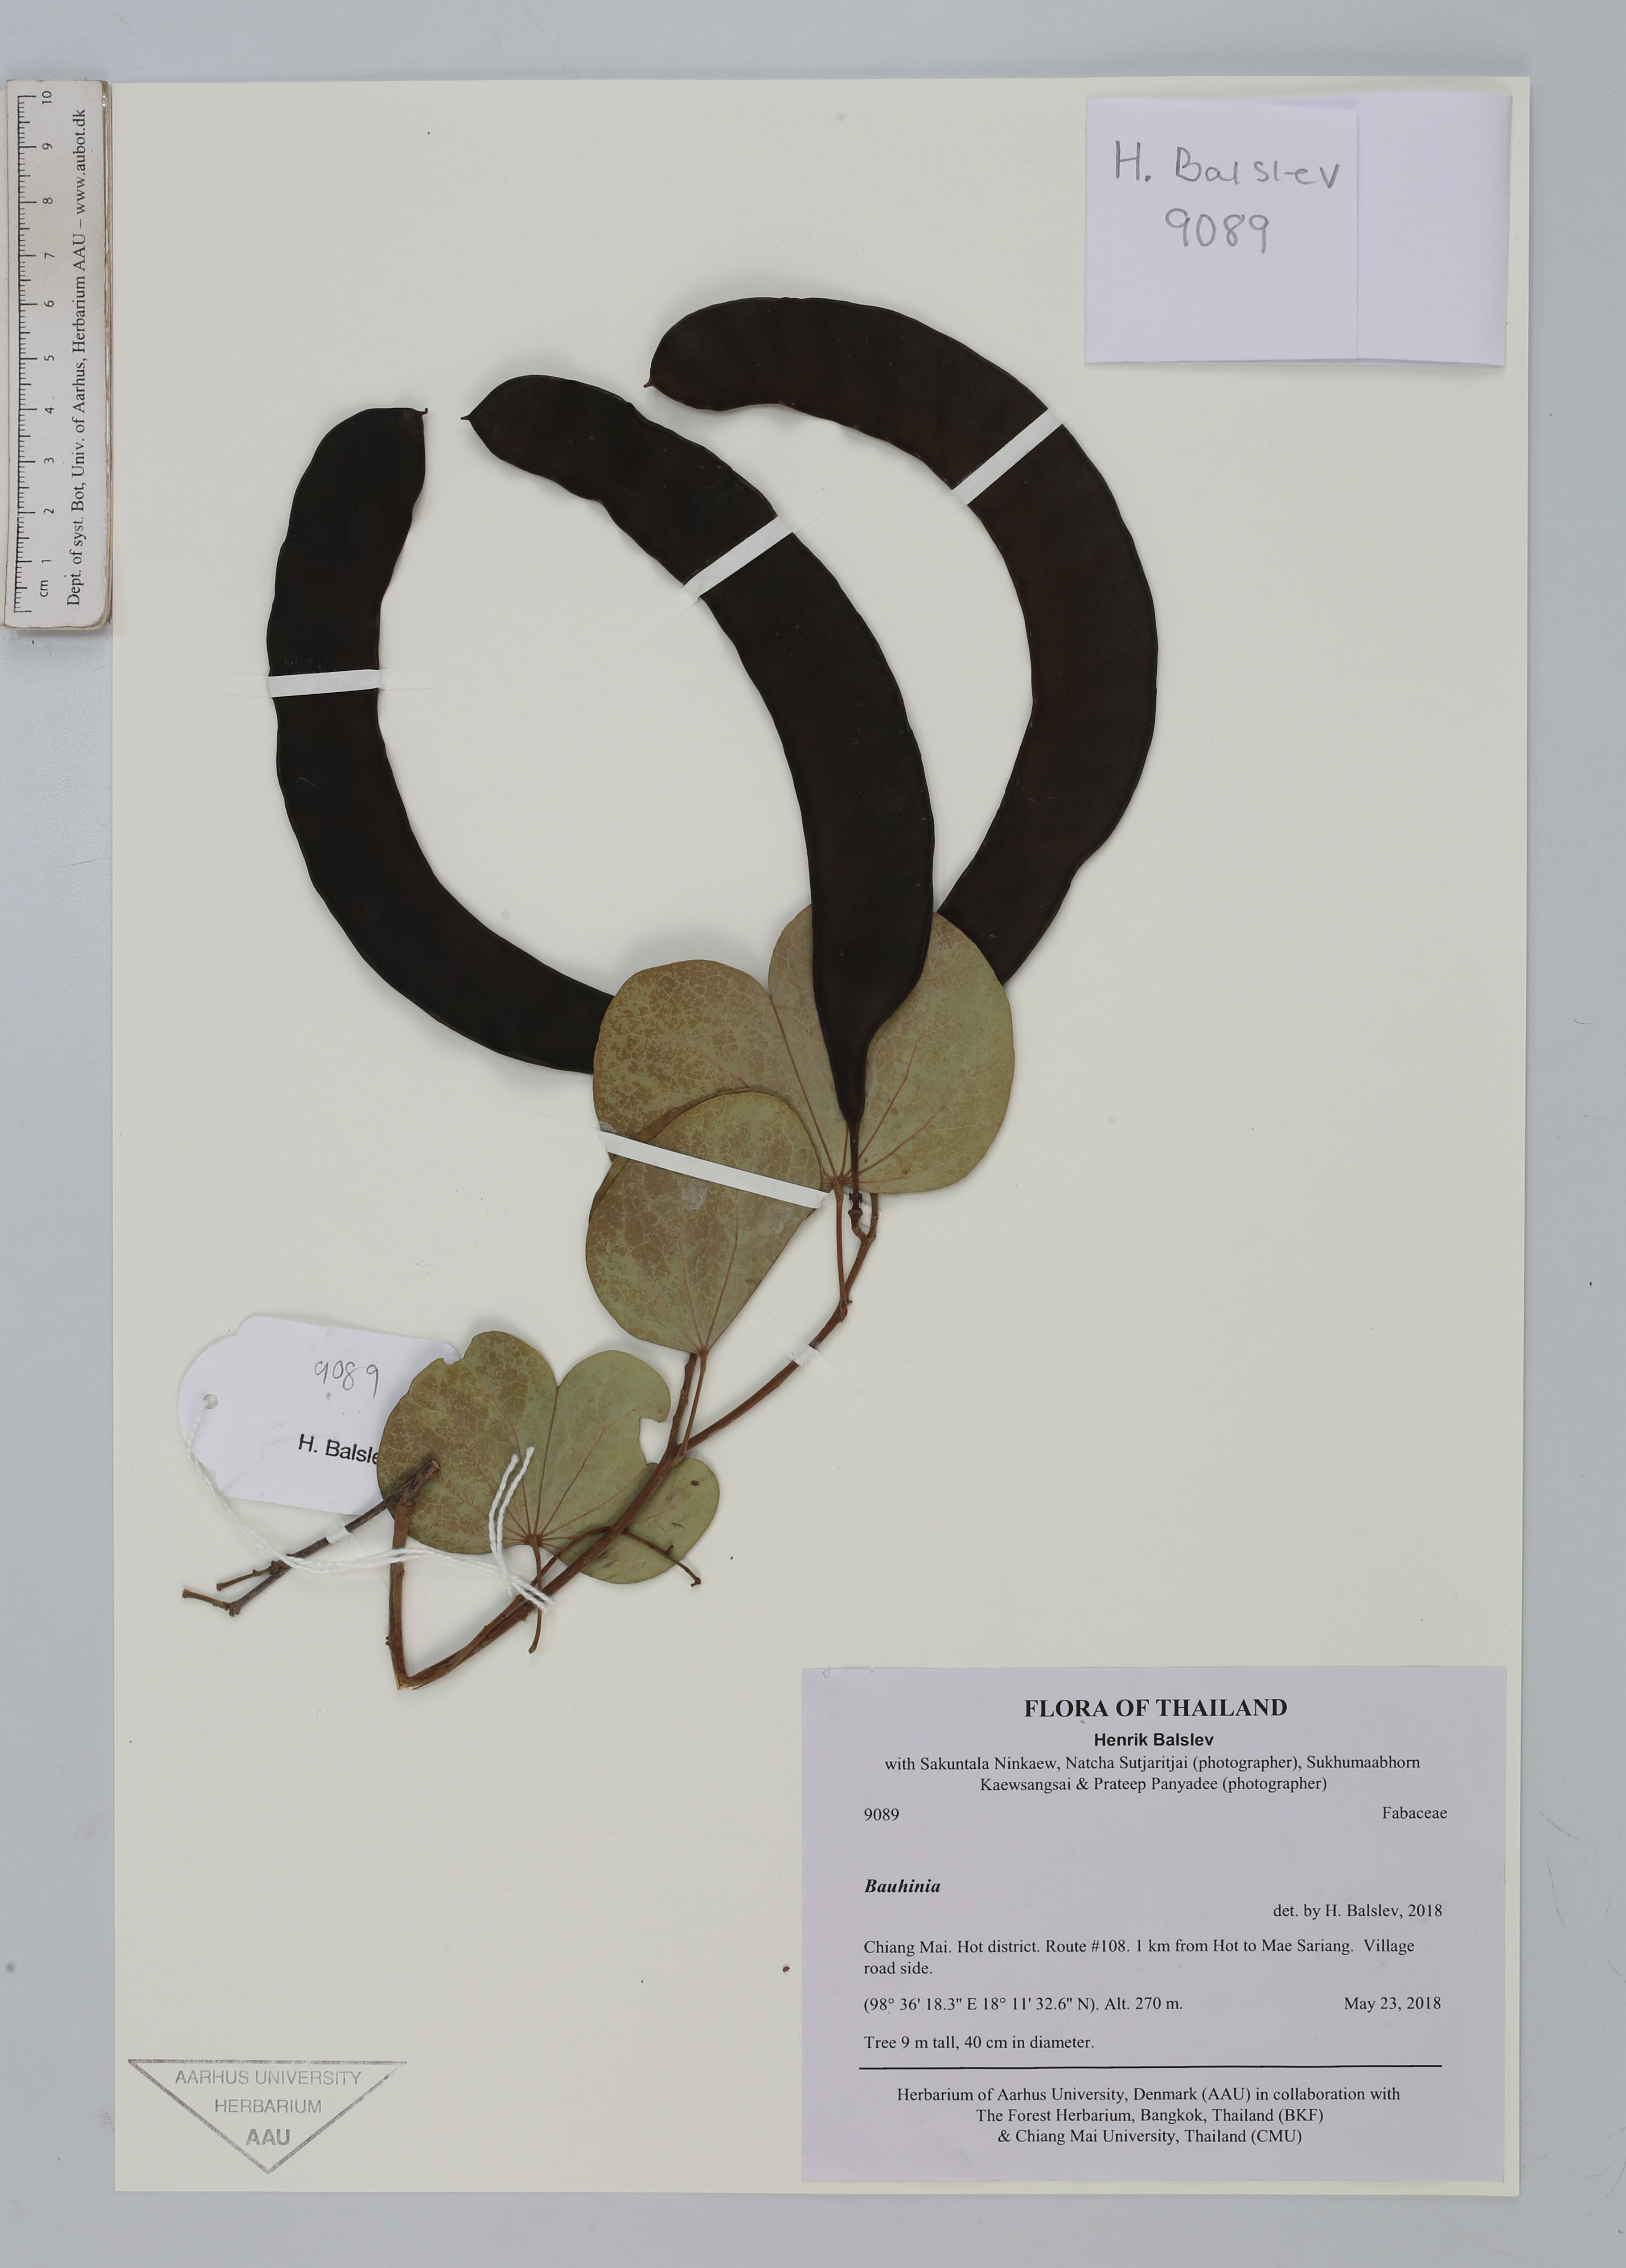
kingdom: Plantae
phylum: Tracheophyta
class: Magnoliopsida
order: Fabales
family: Fabaceae
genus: Bauhinia
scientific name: Bauhinia
